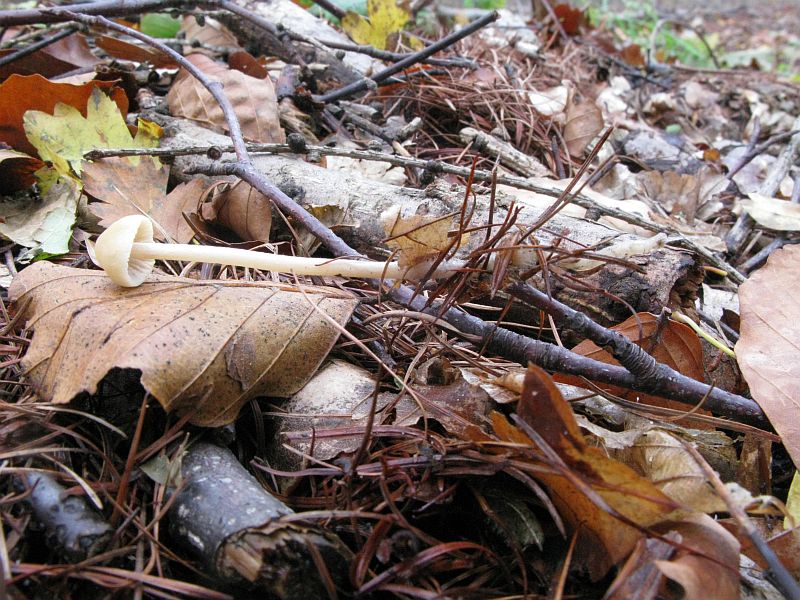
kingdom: Fungi
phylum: Basidiomycota
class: Agaricomycetes
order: Agaricales
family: Psathyrellaceae
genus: Psathyrella
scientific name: Psathyrella corrugis
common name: rødægget mørkhat
